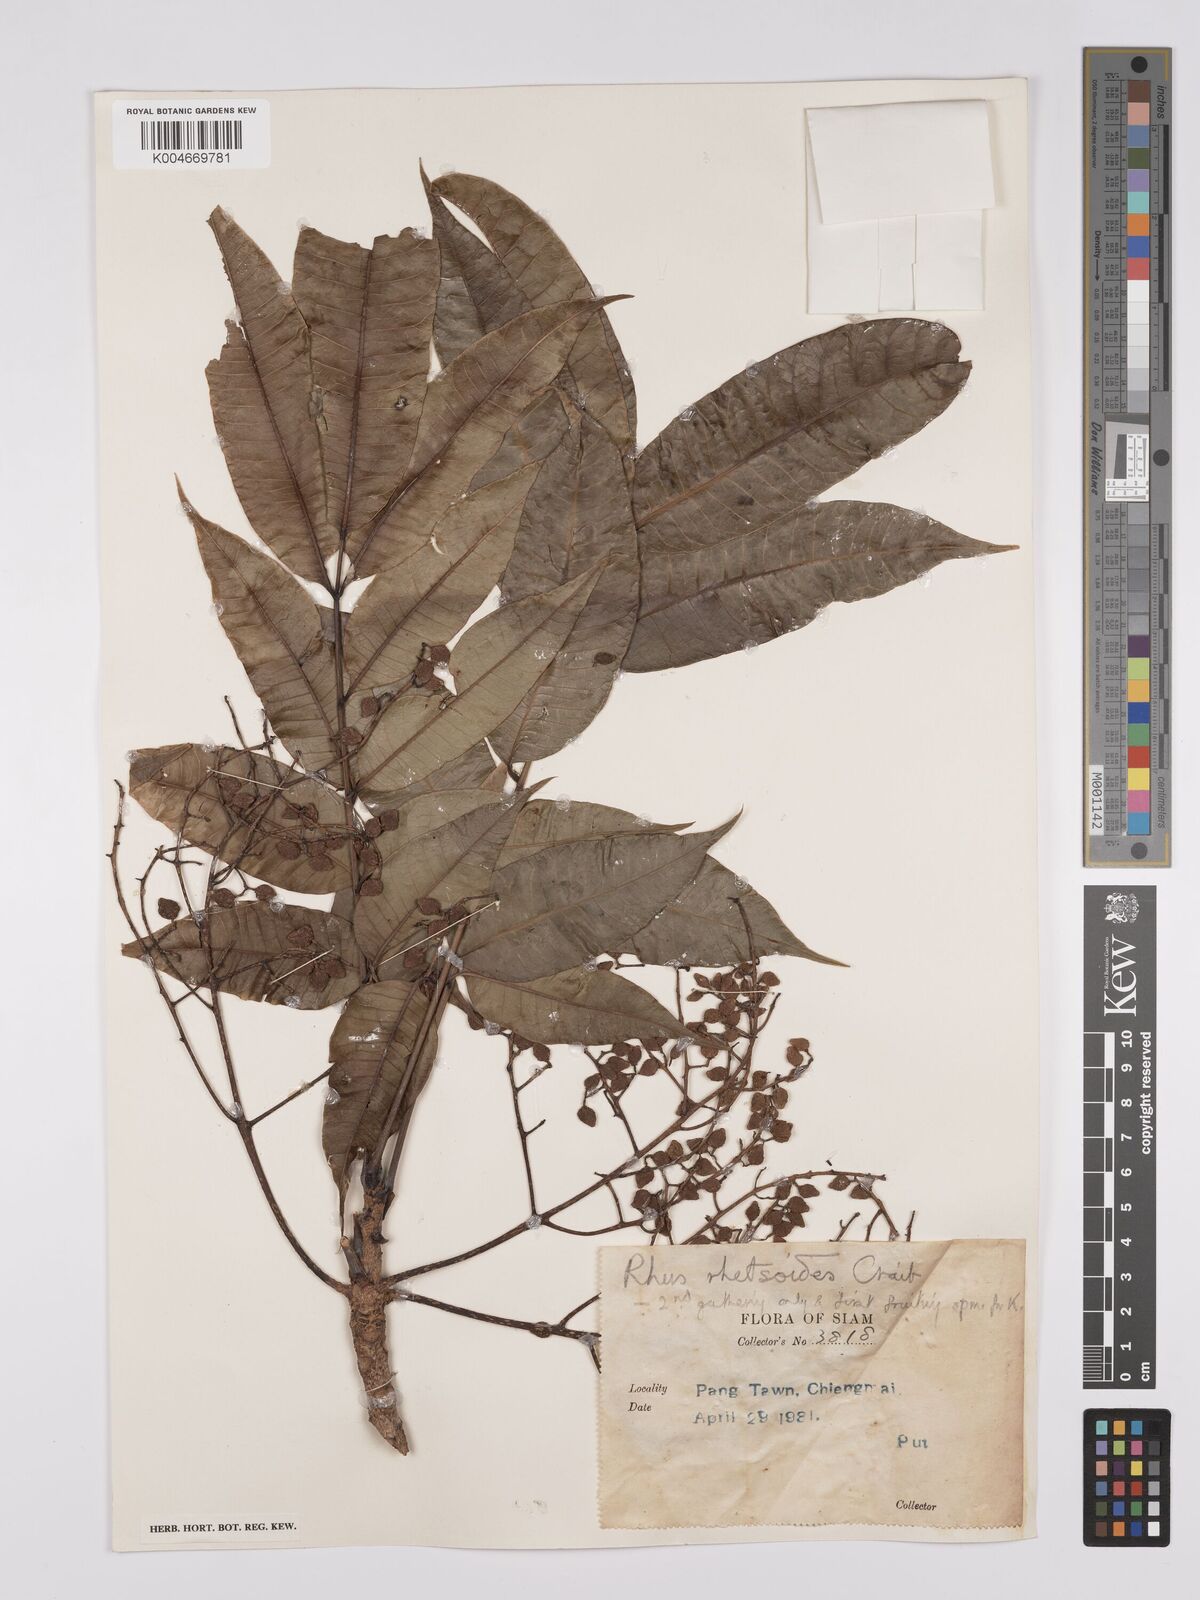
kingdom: Plantae
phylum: Tracheophyta
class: Magnoliopsida
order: Sapindales
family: Anacardiaceae
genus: Toxicodendron
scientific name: Toxicodendron rhetsoides
